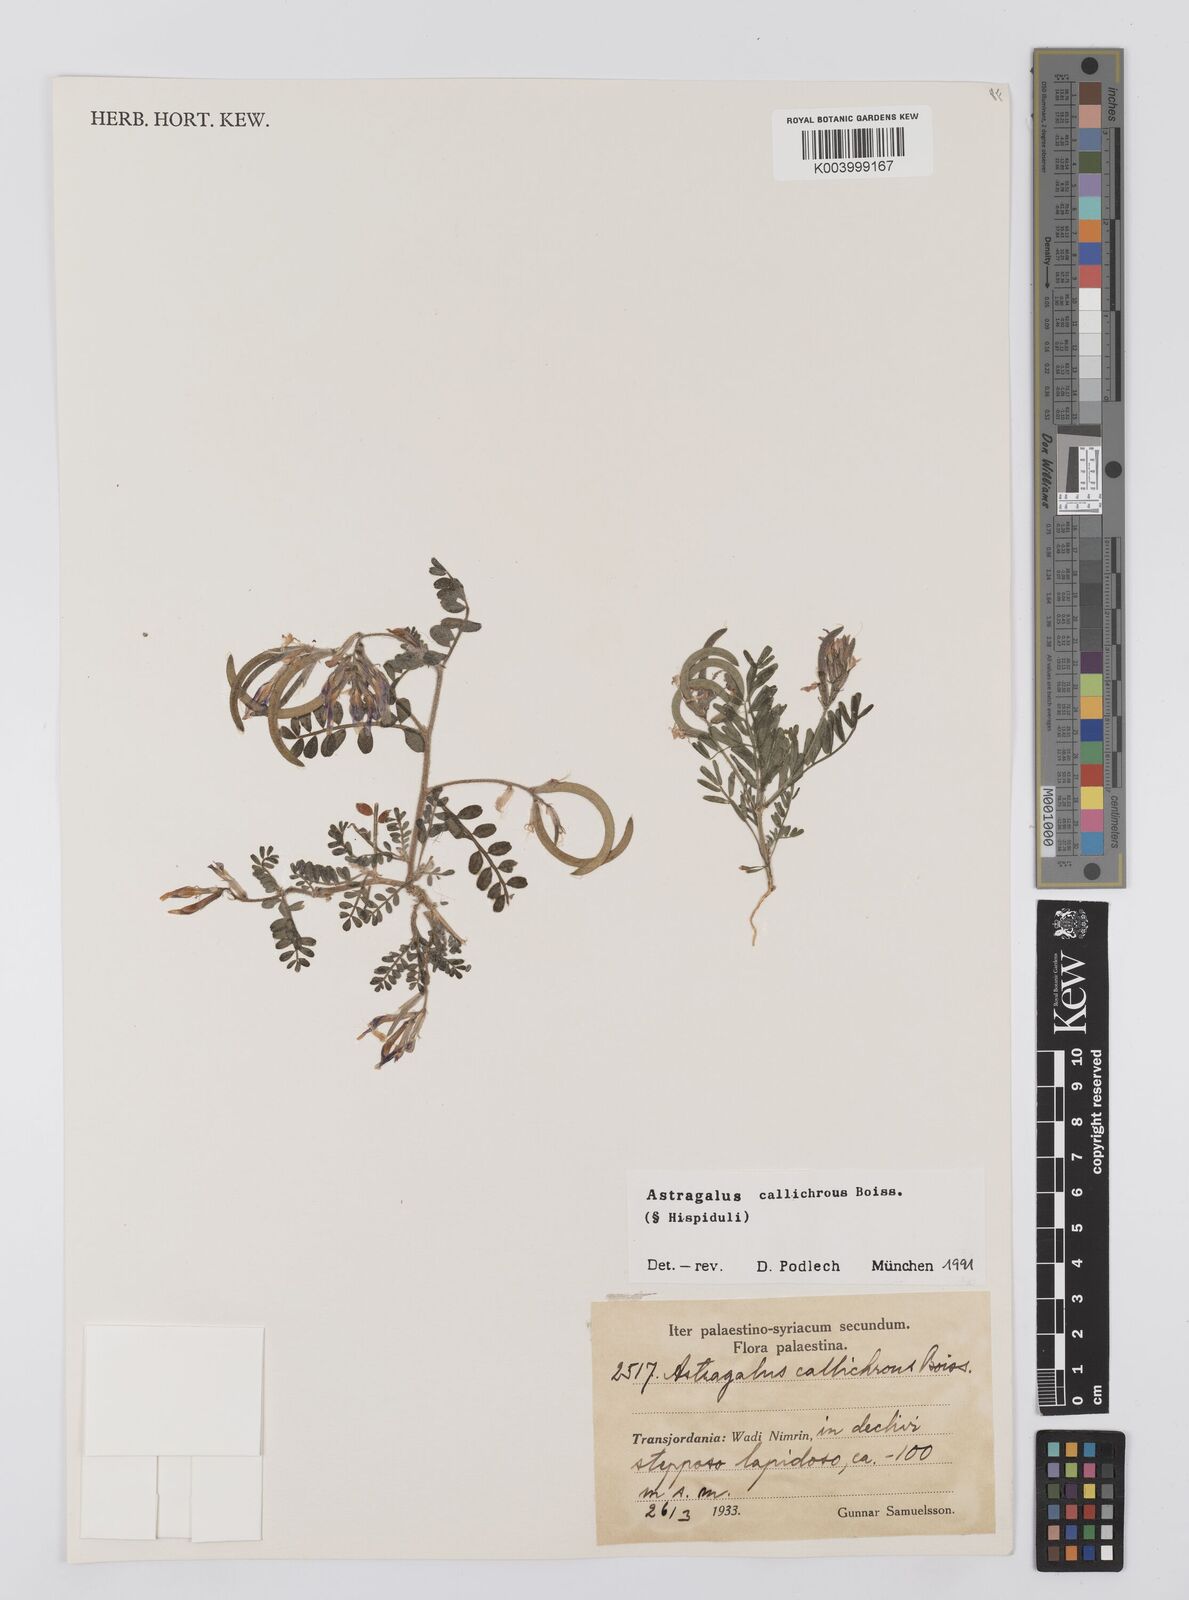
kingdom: Plantae
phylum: Tracheophyta
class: Magnoliopsida
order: Fabales
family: Fabaceae
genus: Astragalus
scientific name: Astragalus callichrous
